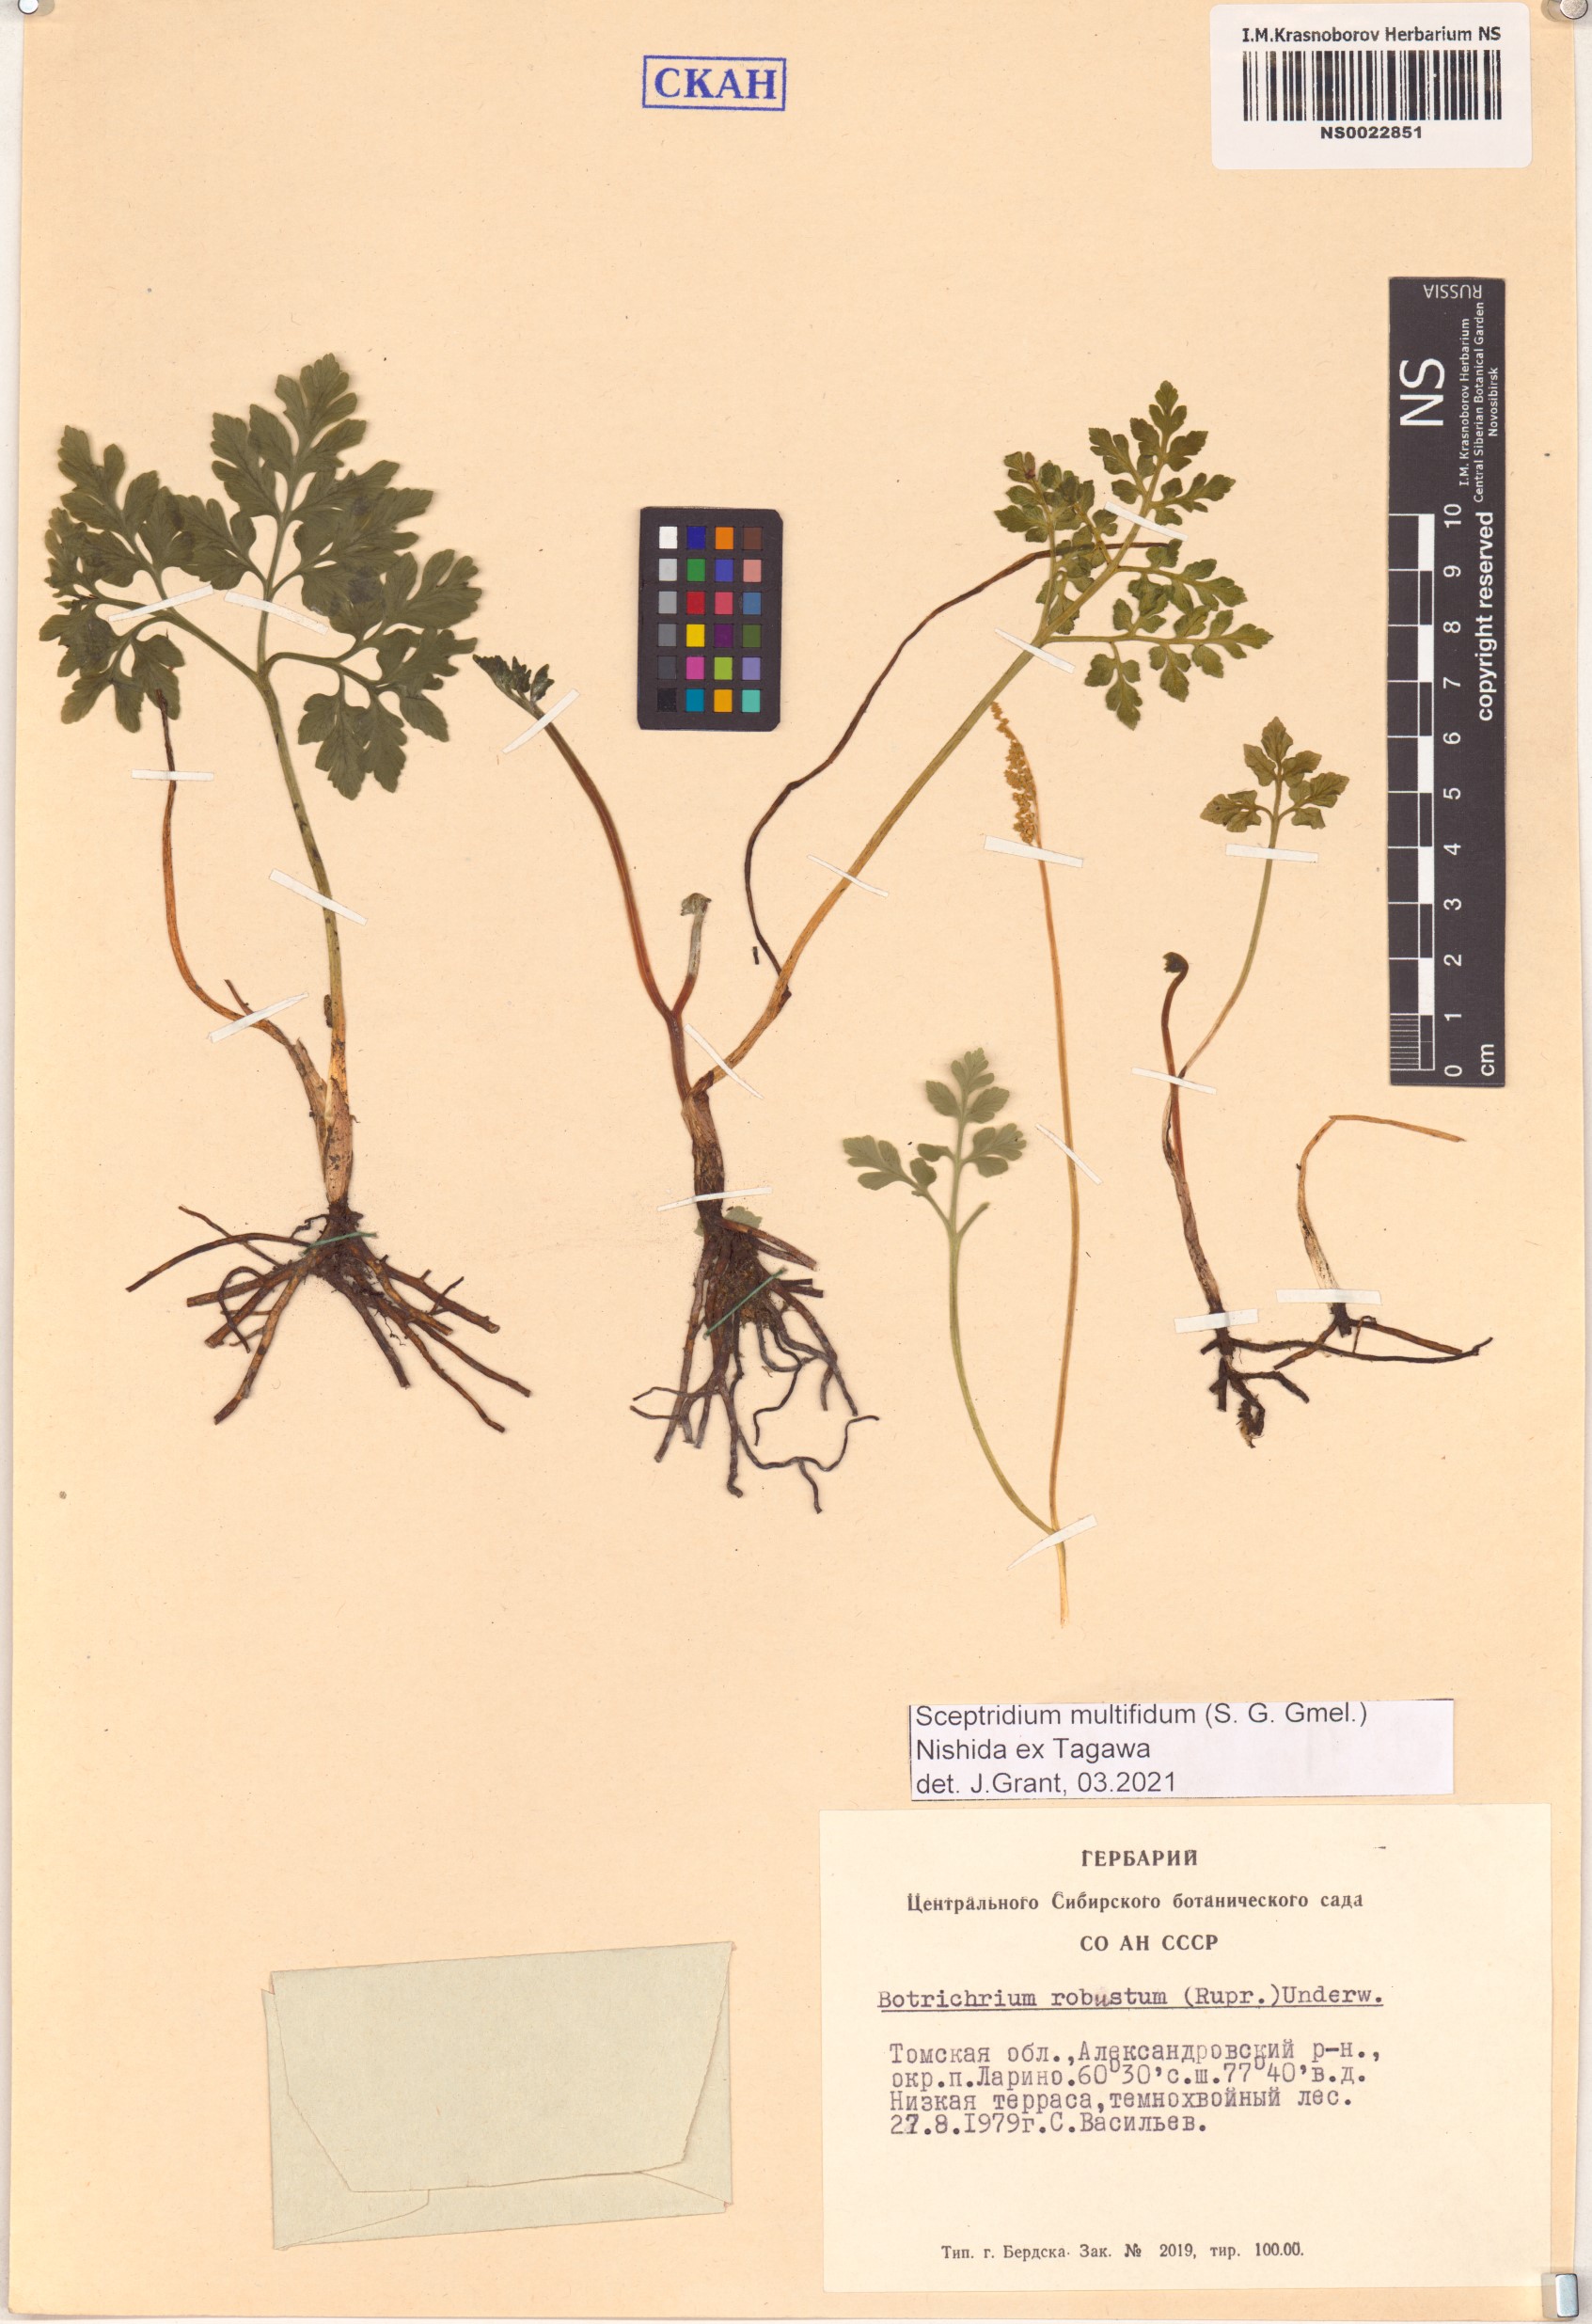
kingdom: Plantae
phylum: Tracheophyta
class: Polypodiopsida
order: Ophioglossales
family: Ophioglossaceae
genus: Sceptridium
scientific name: Sceptridium multifidum
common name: Leathery grape fern
